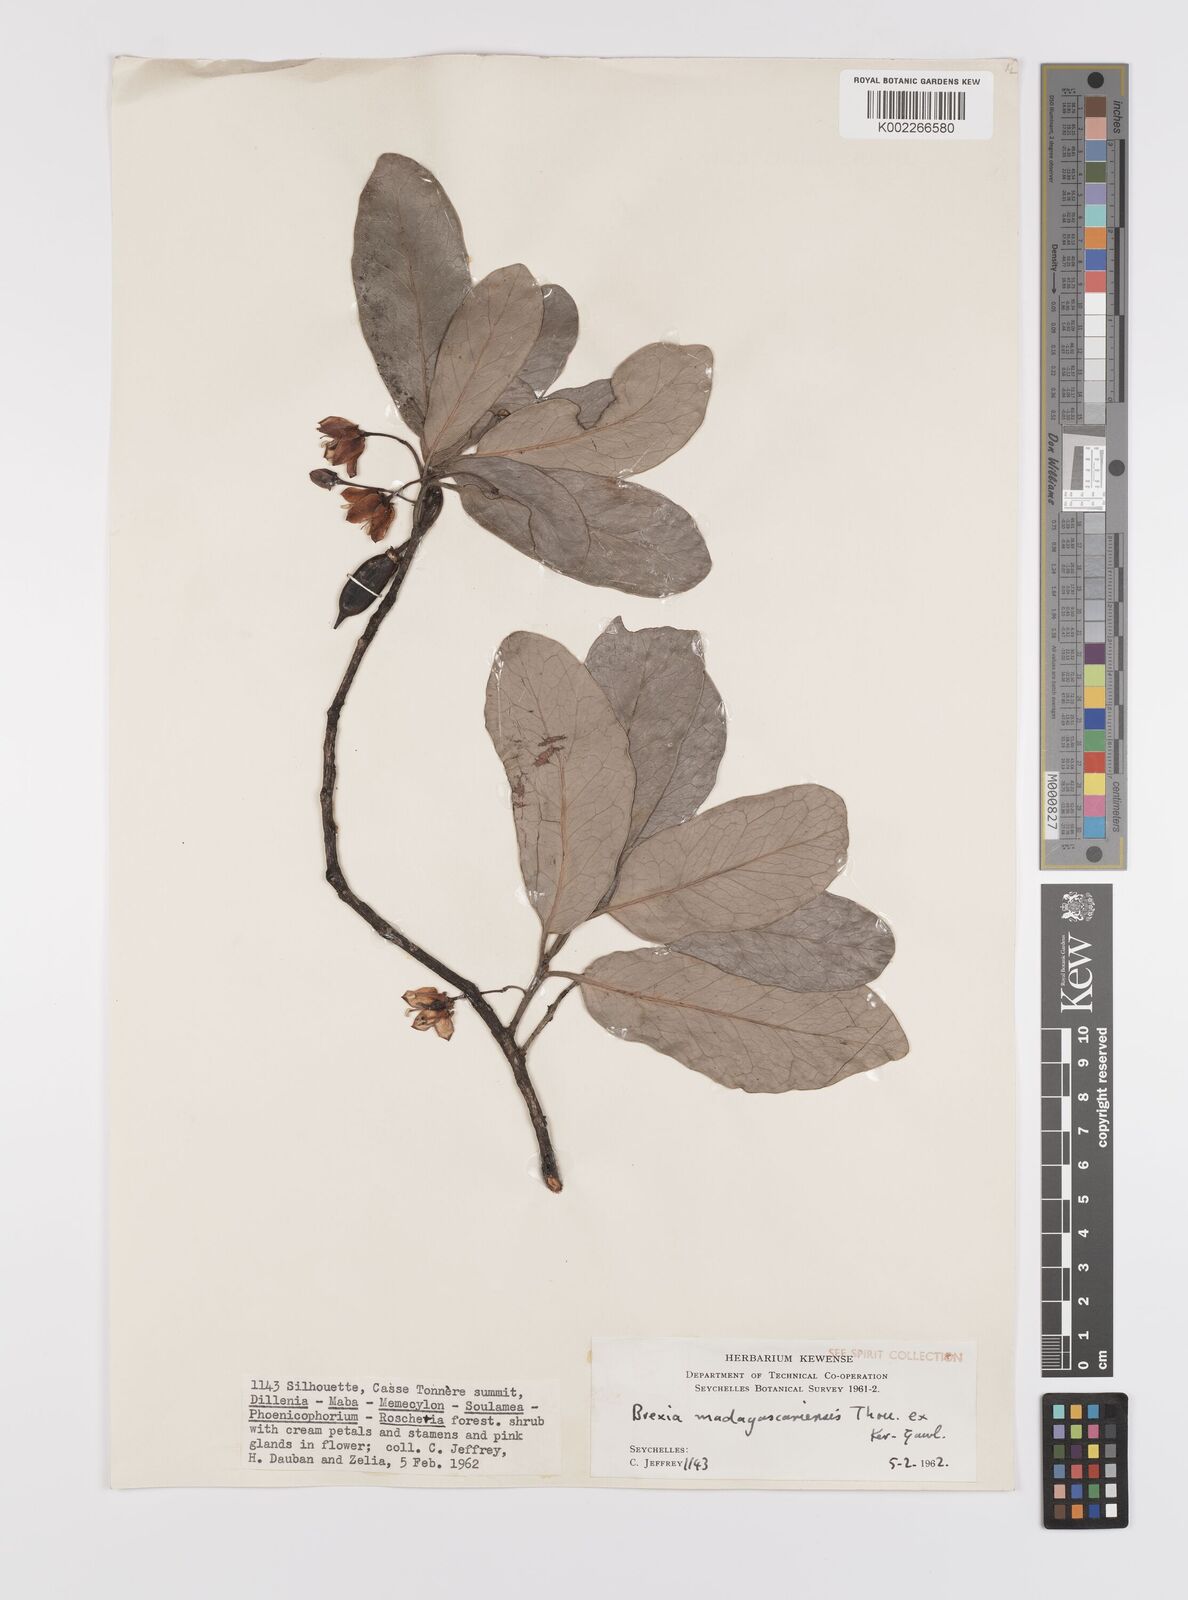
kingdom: Plantae
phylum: Tracheophyta
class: Magnoliopsida
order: Celastrales
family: Celastraceae
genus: Brexia
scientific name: Brexia madagascariensis
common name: Brexia
